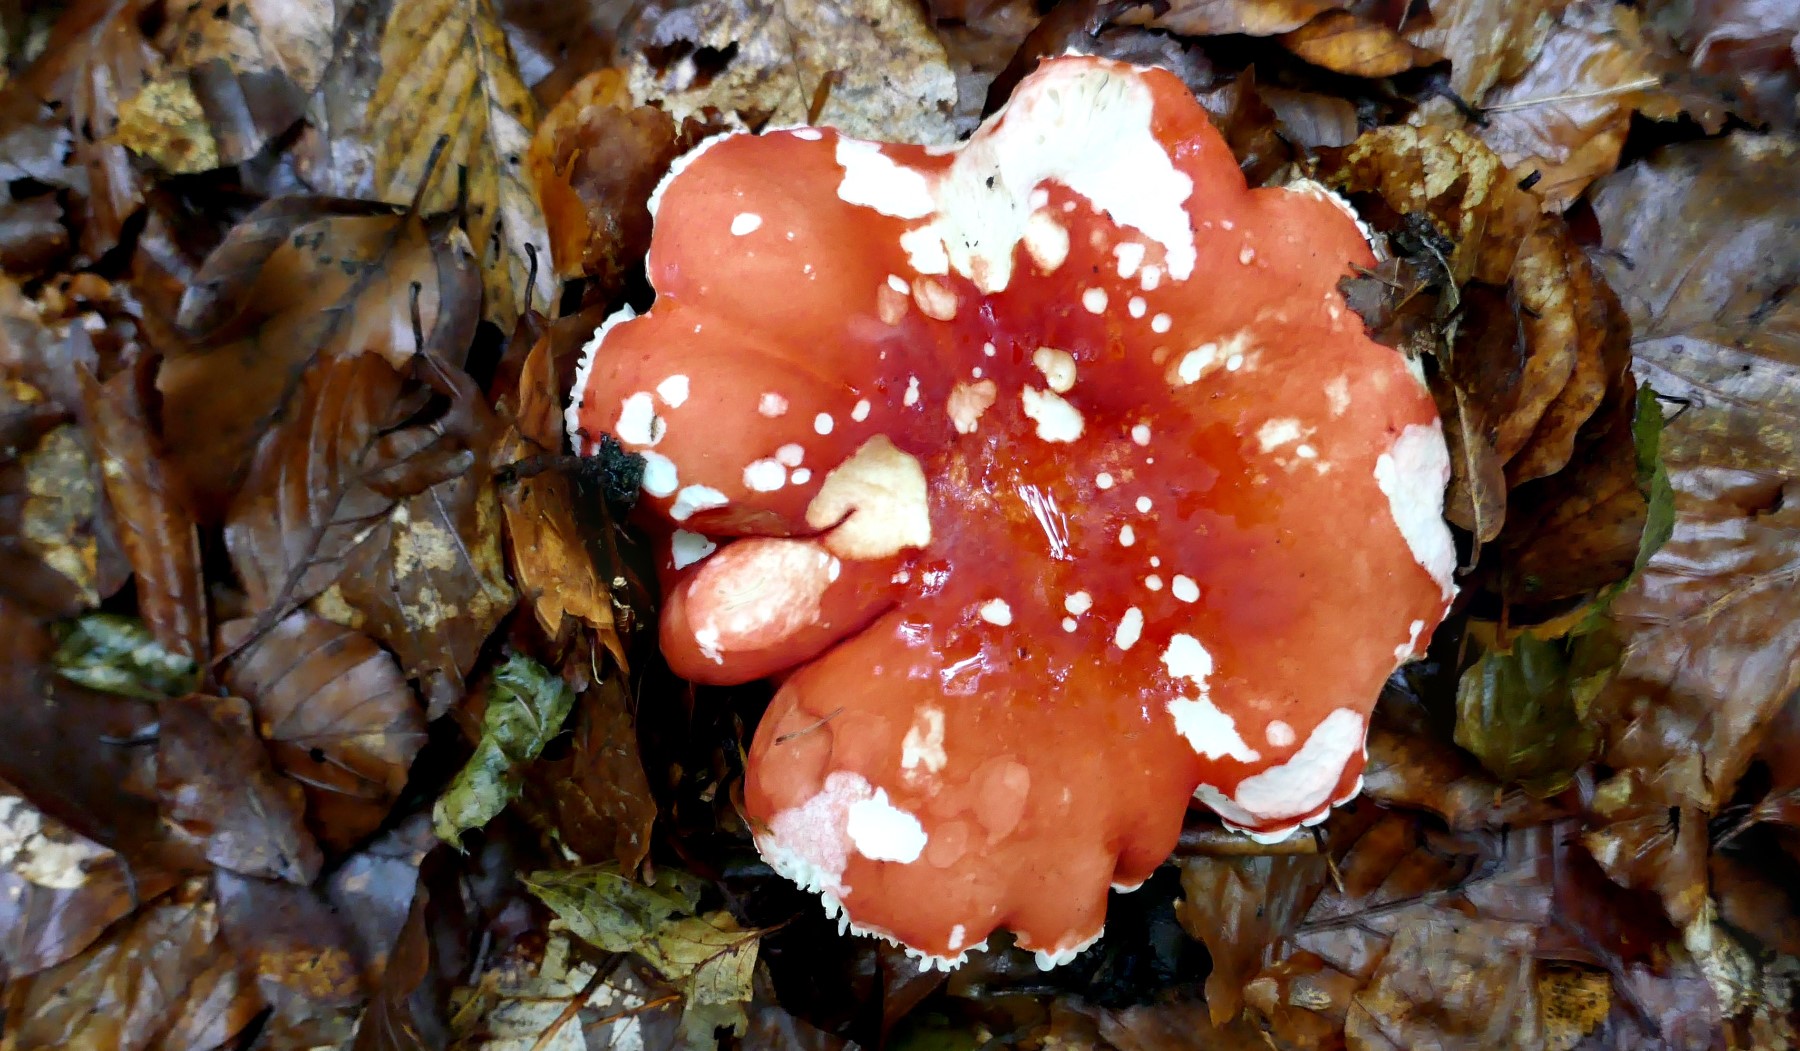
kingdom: Fungi
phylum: Basidiomycota
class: Agaricomycetes
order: Russulales
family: Russulaceae
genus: Russula
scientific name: Russula rosea
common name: fastkødet skørhat
